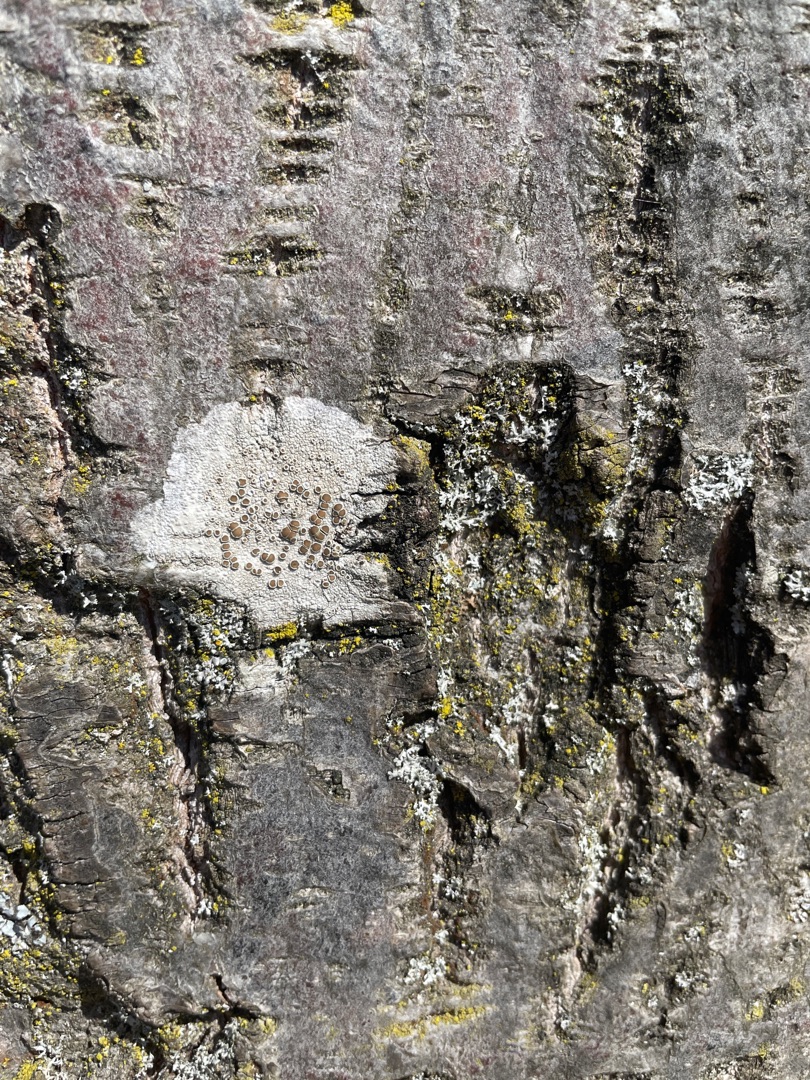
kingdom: Fungi
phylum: Ascomycota
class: Lecanoromycetes
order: Lecanorales
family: Lecanoraceae
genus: Lecanora
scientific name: Lecanora chlarotera
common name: Brun kantskivelav
